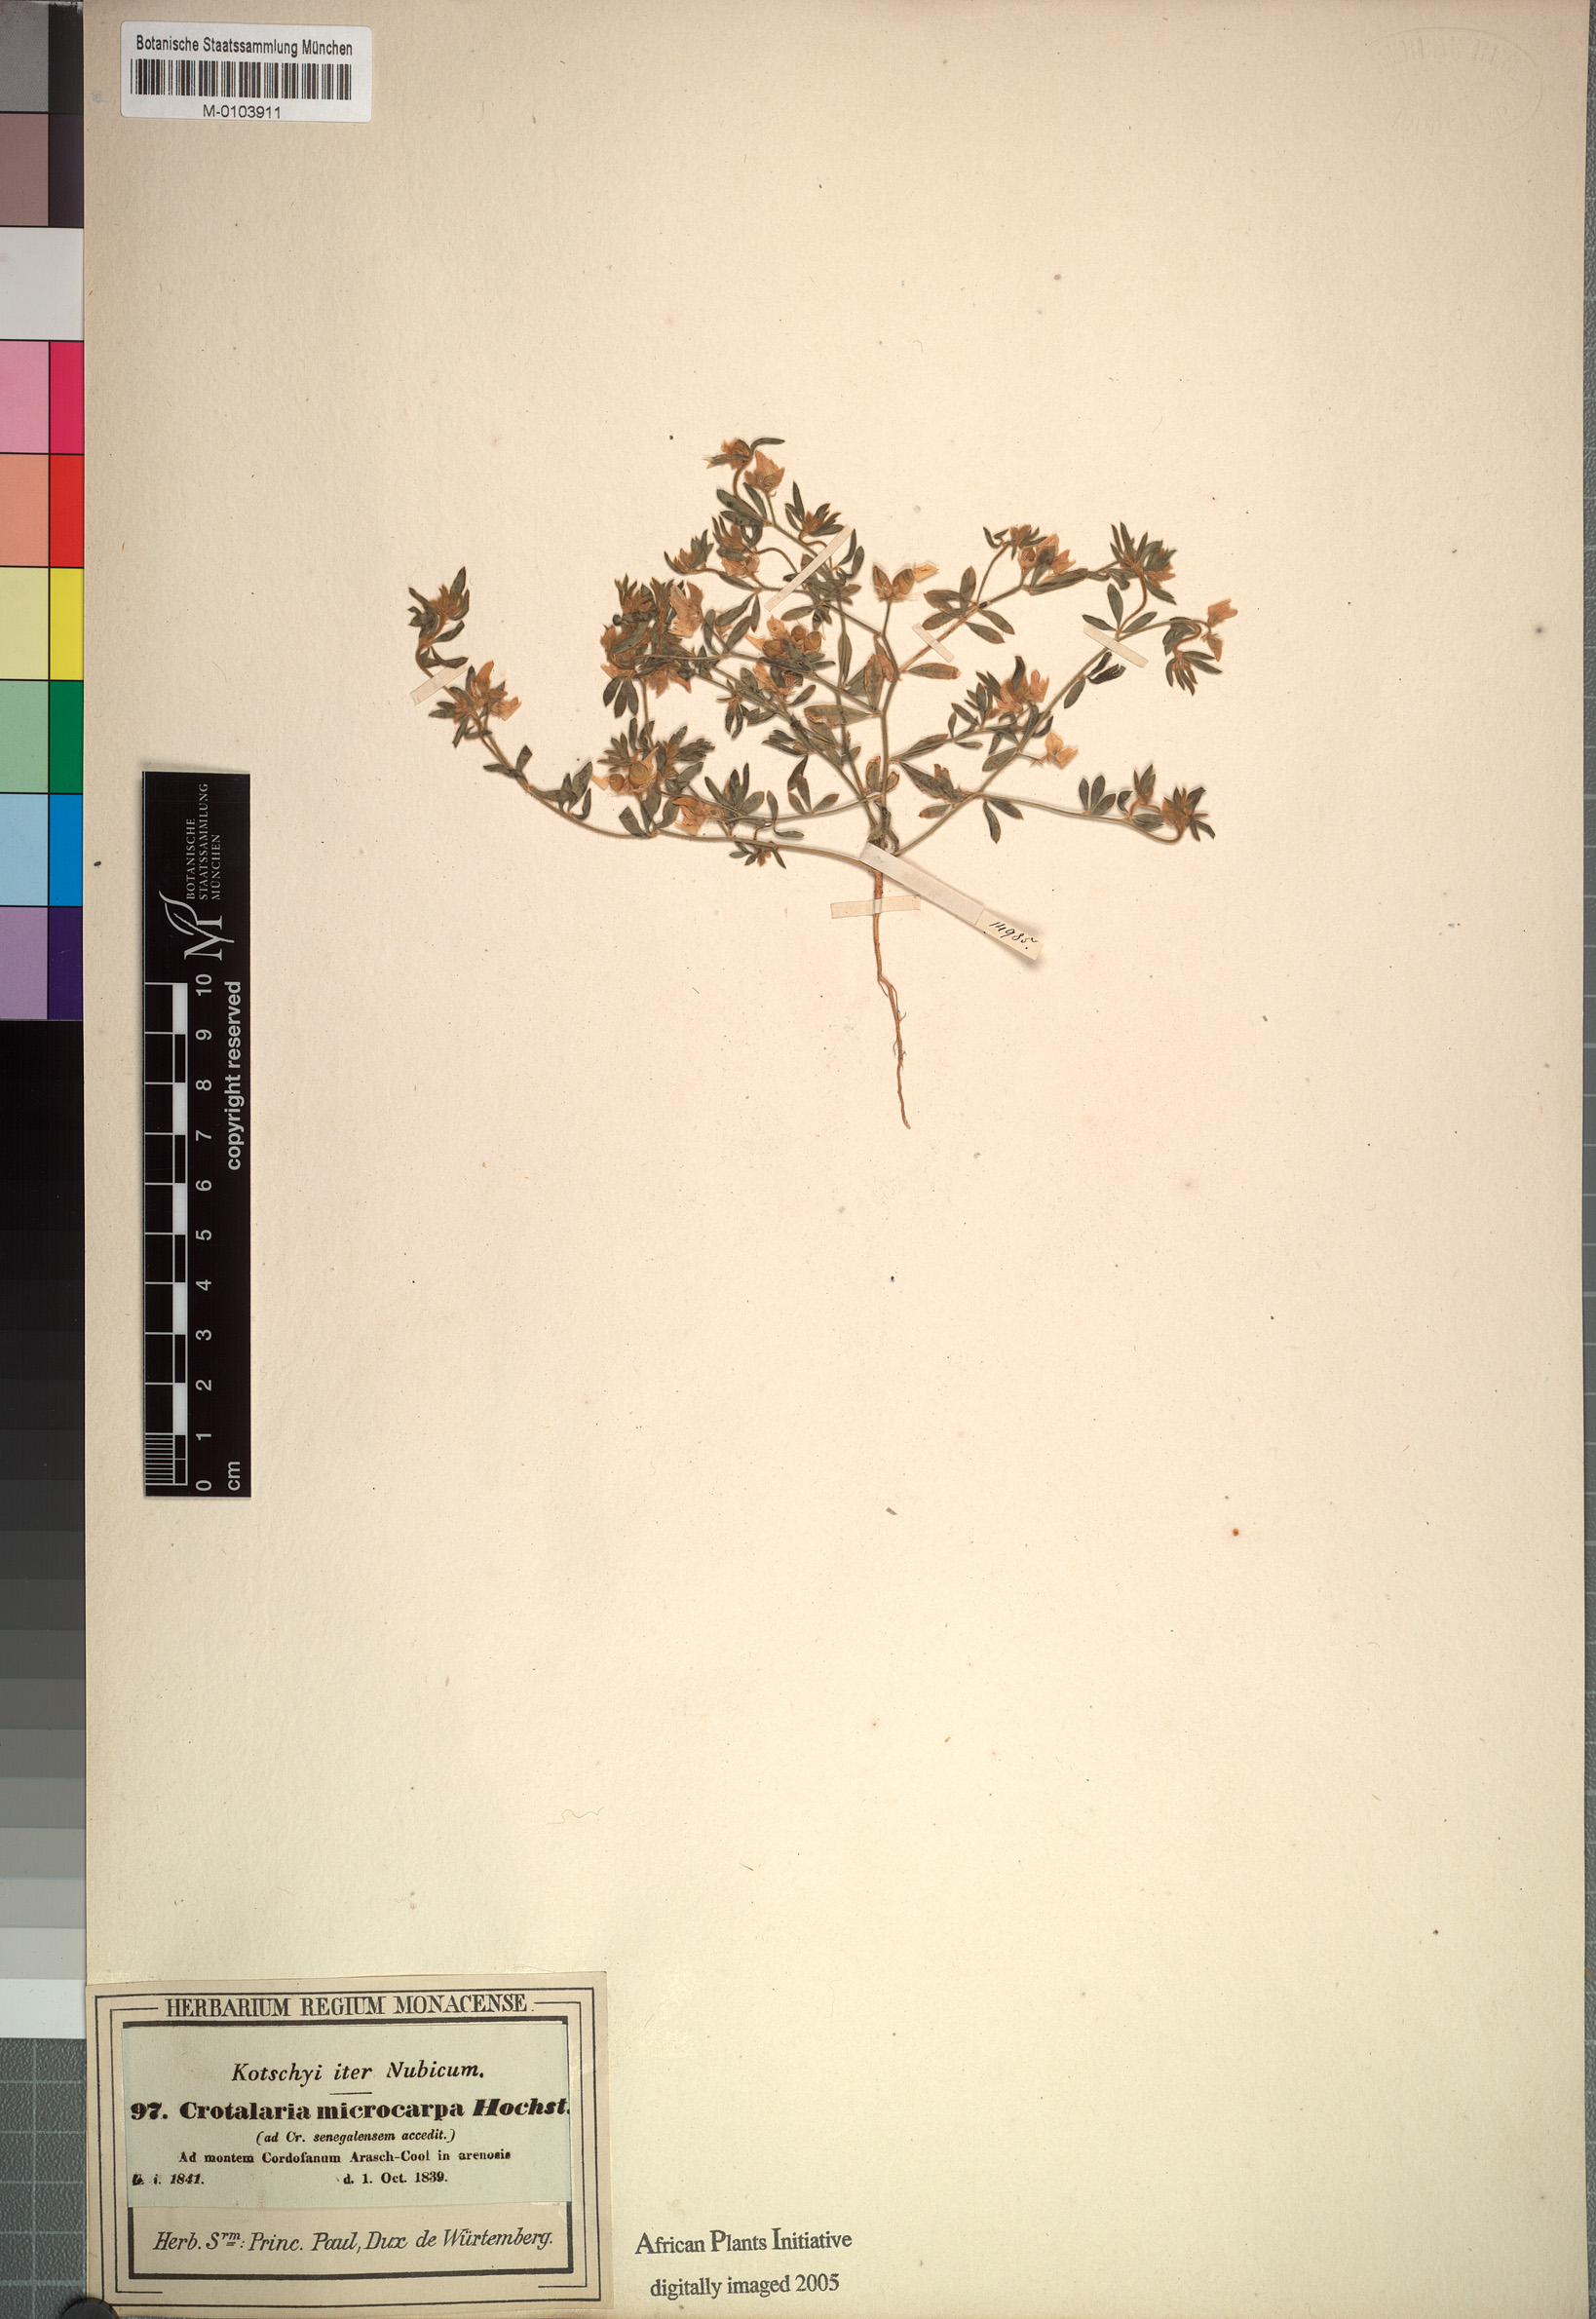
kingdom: Plantae
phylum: Tracheophyta
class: Magnoliopsida
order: Fabales
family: Fabaceae
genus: Crotalaria
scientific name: Crotalaria microcarpa
